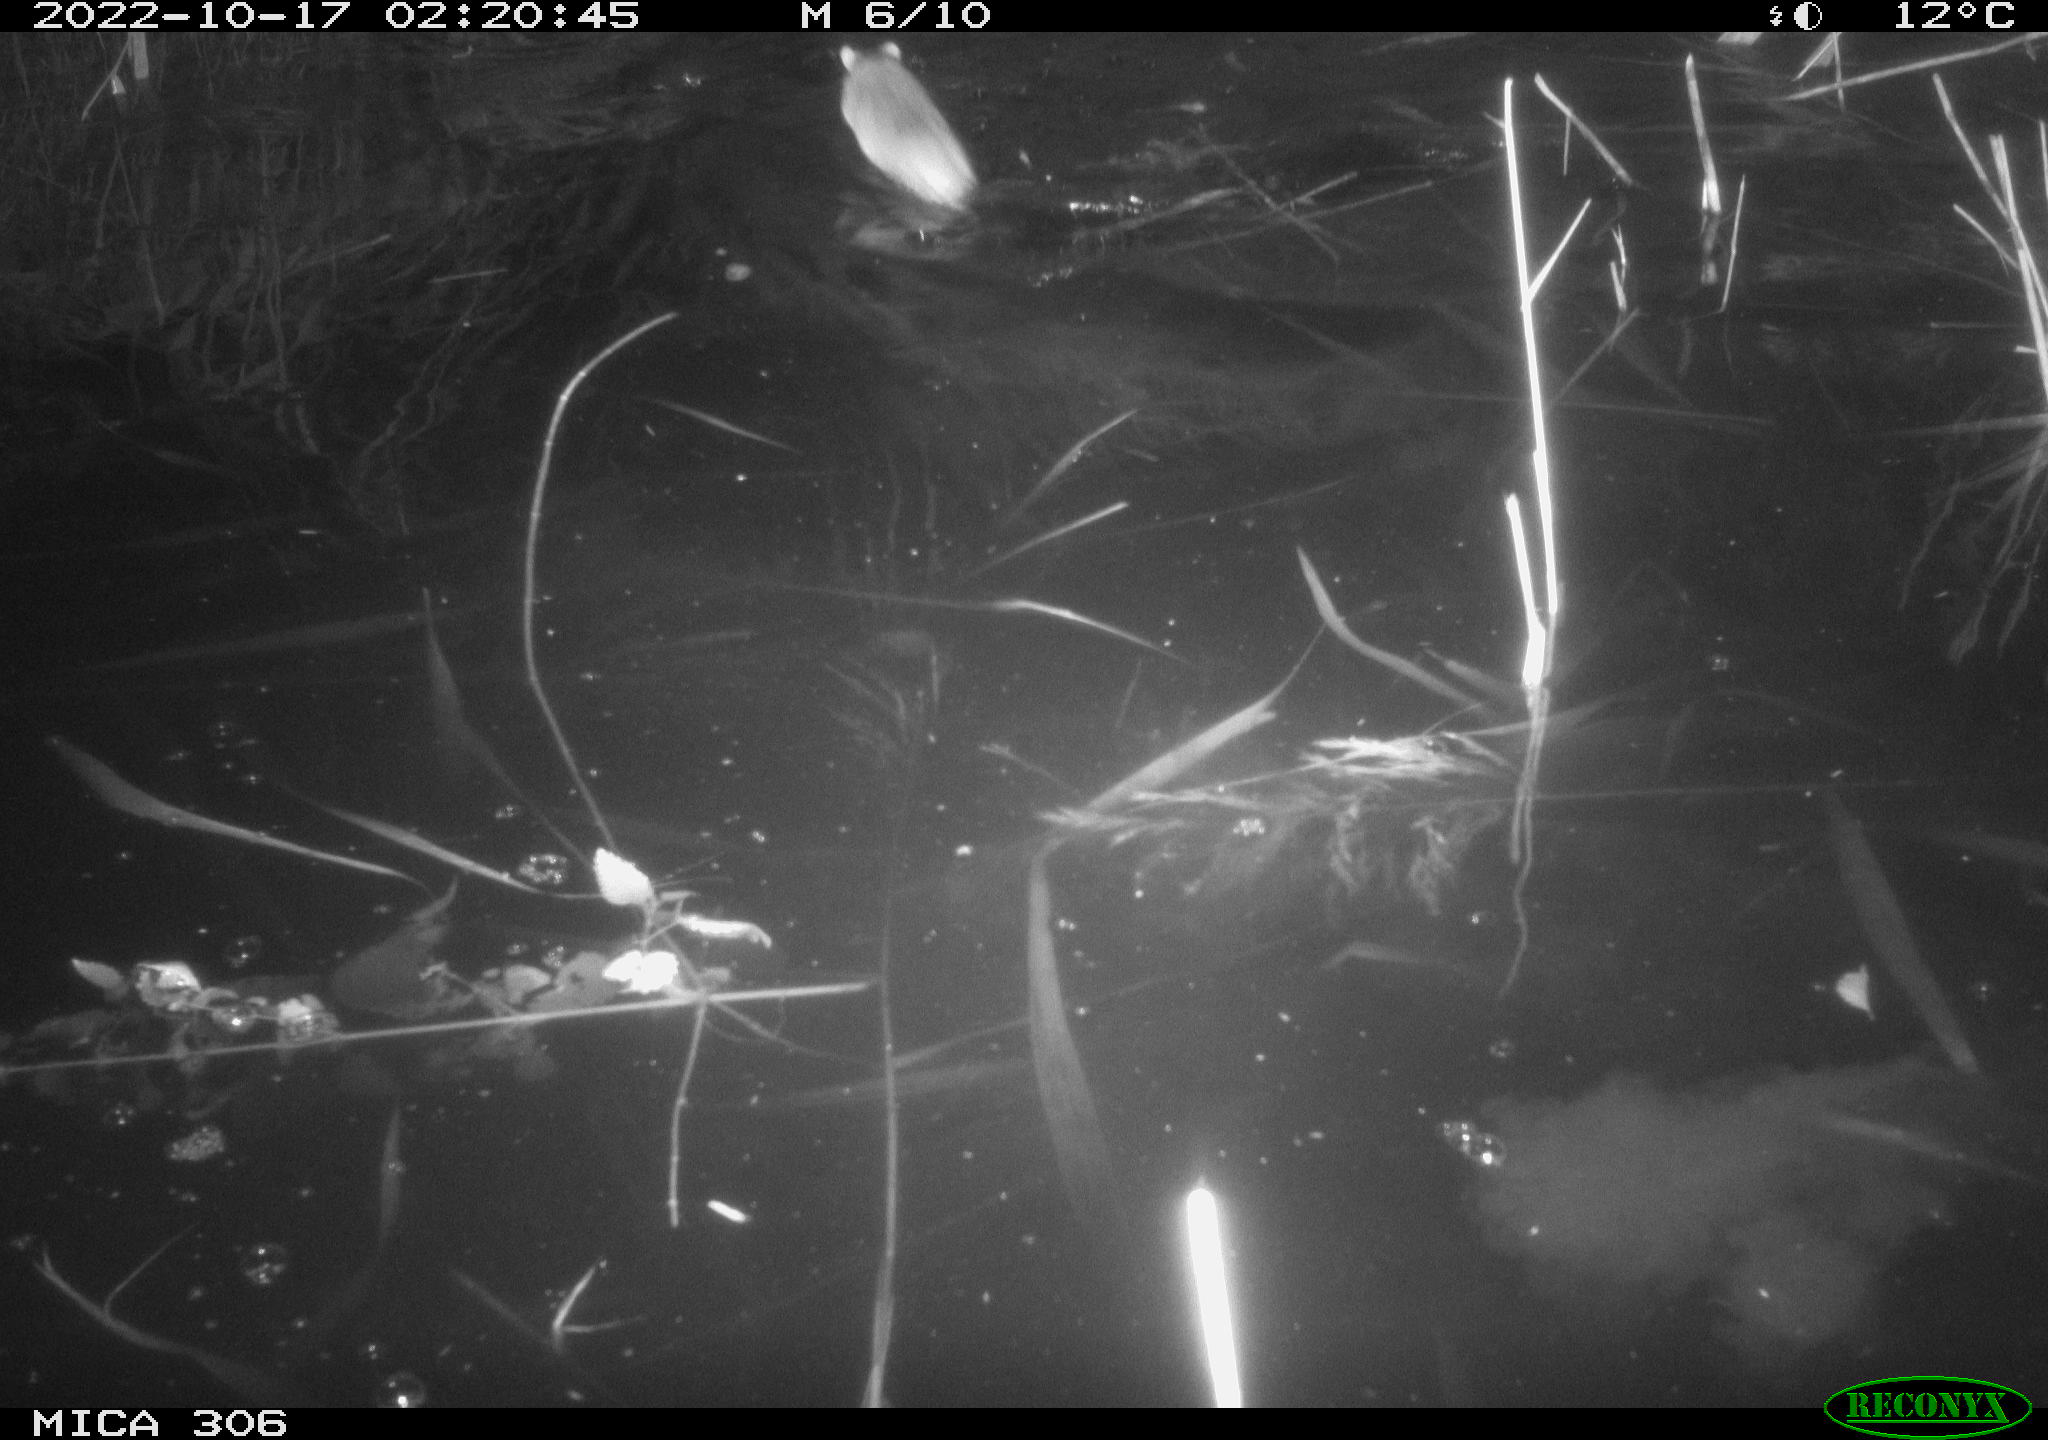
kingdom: Animalia
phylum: Chordata
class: Mammalia
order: Rodentia
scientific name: Rodentia
